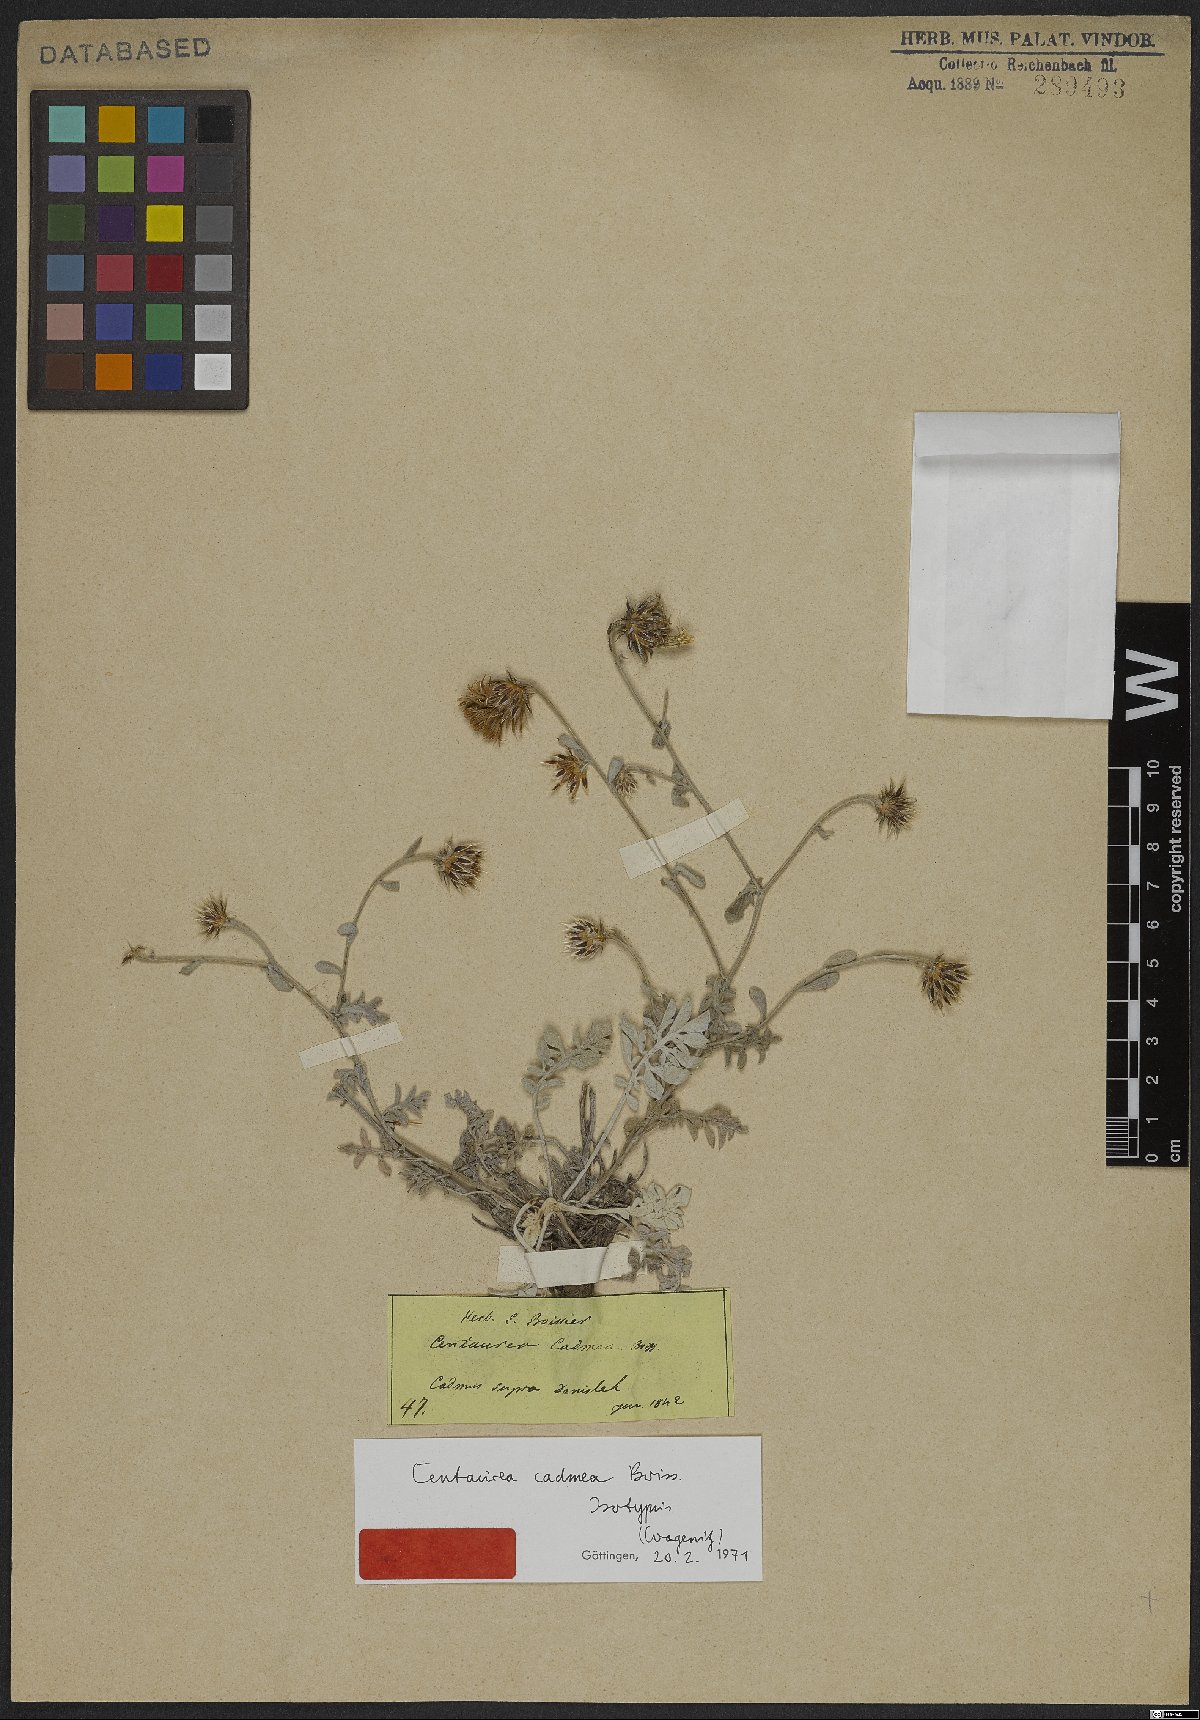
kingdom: Plantae
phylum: Tracheophyta
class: Magnoliopsida
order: Asterales
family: Asteraceae
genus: Centaurea
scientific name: Centaurea cadmea
